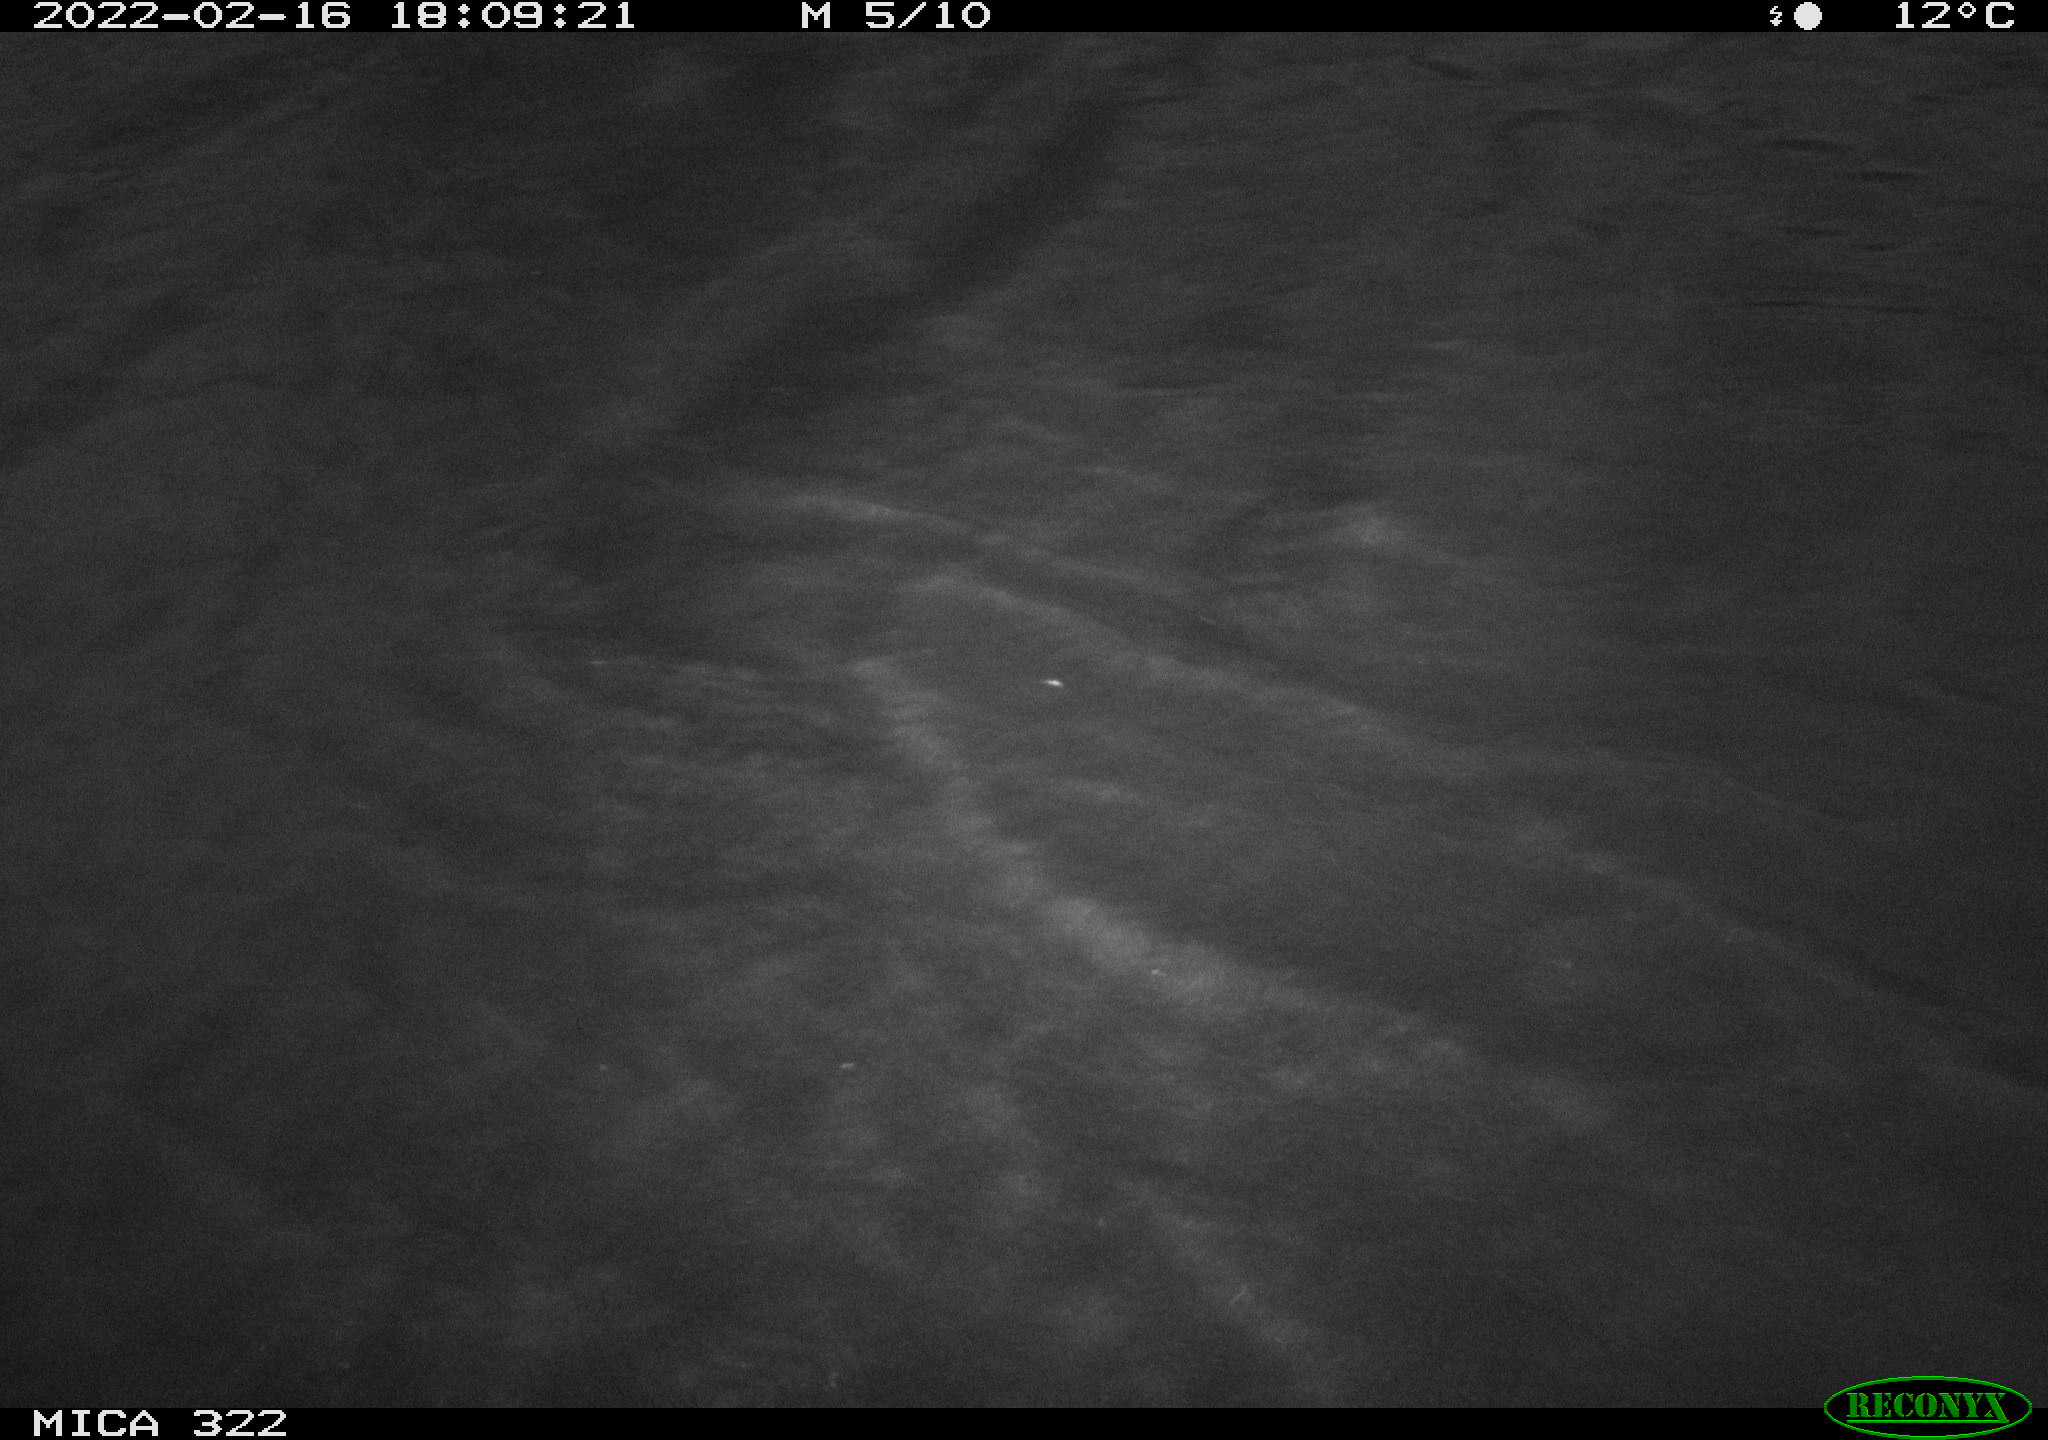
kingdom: Animalia
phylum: Chordata
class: Aves
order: Gruiformes
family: Rallidae
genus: Gallinula
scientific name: Gallinula chloropus
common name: Common moorhen
